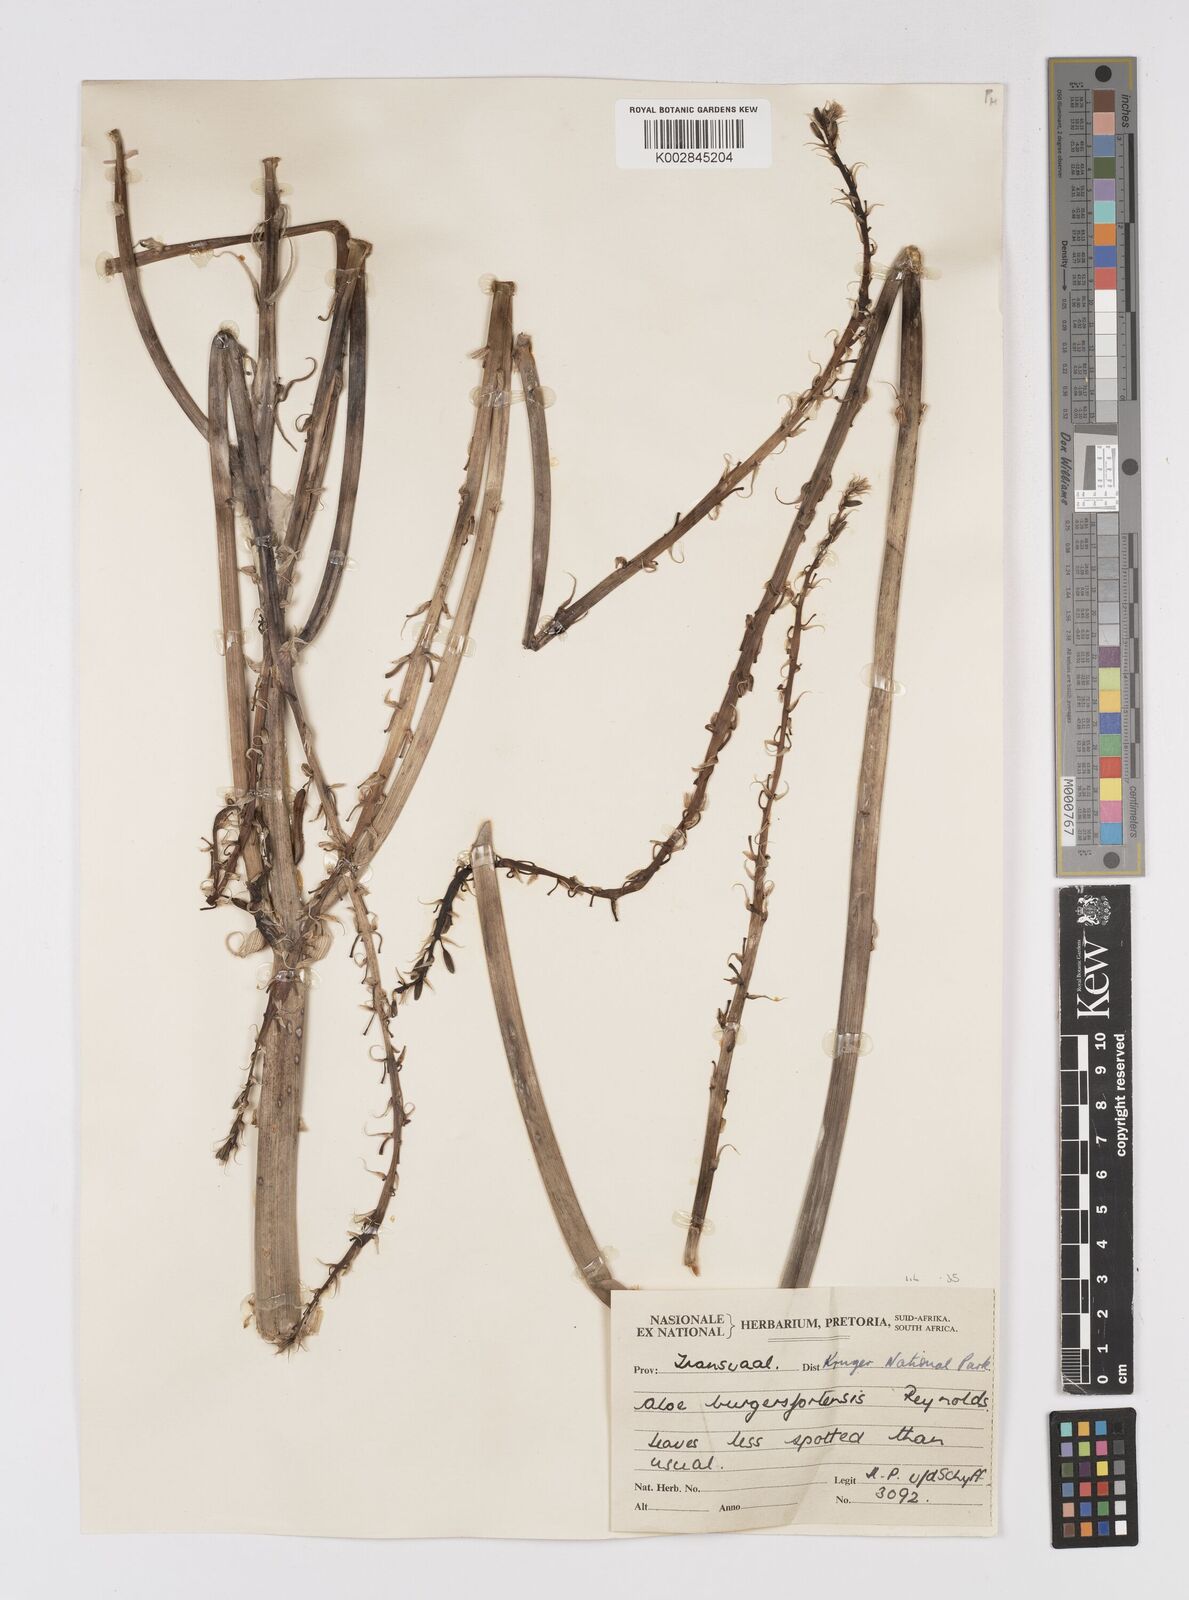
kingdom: Plantae
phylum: Tracheophyta
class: Liliopsida
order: Asparagales
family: Asphodelaceae
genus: Aloe
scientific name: Aloe burgersfortensis
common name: Burgersfort aloe
